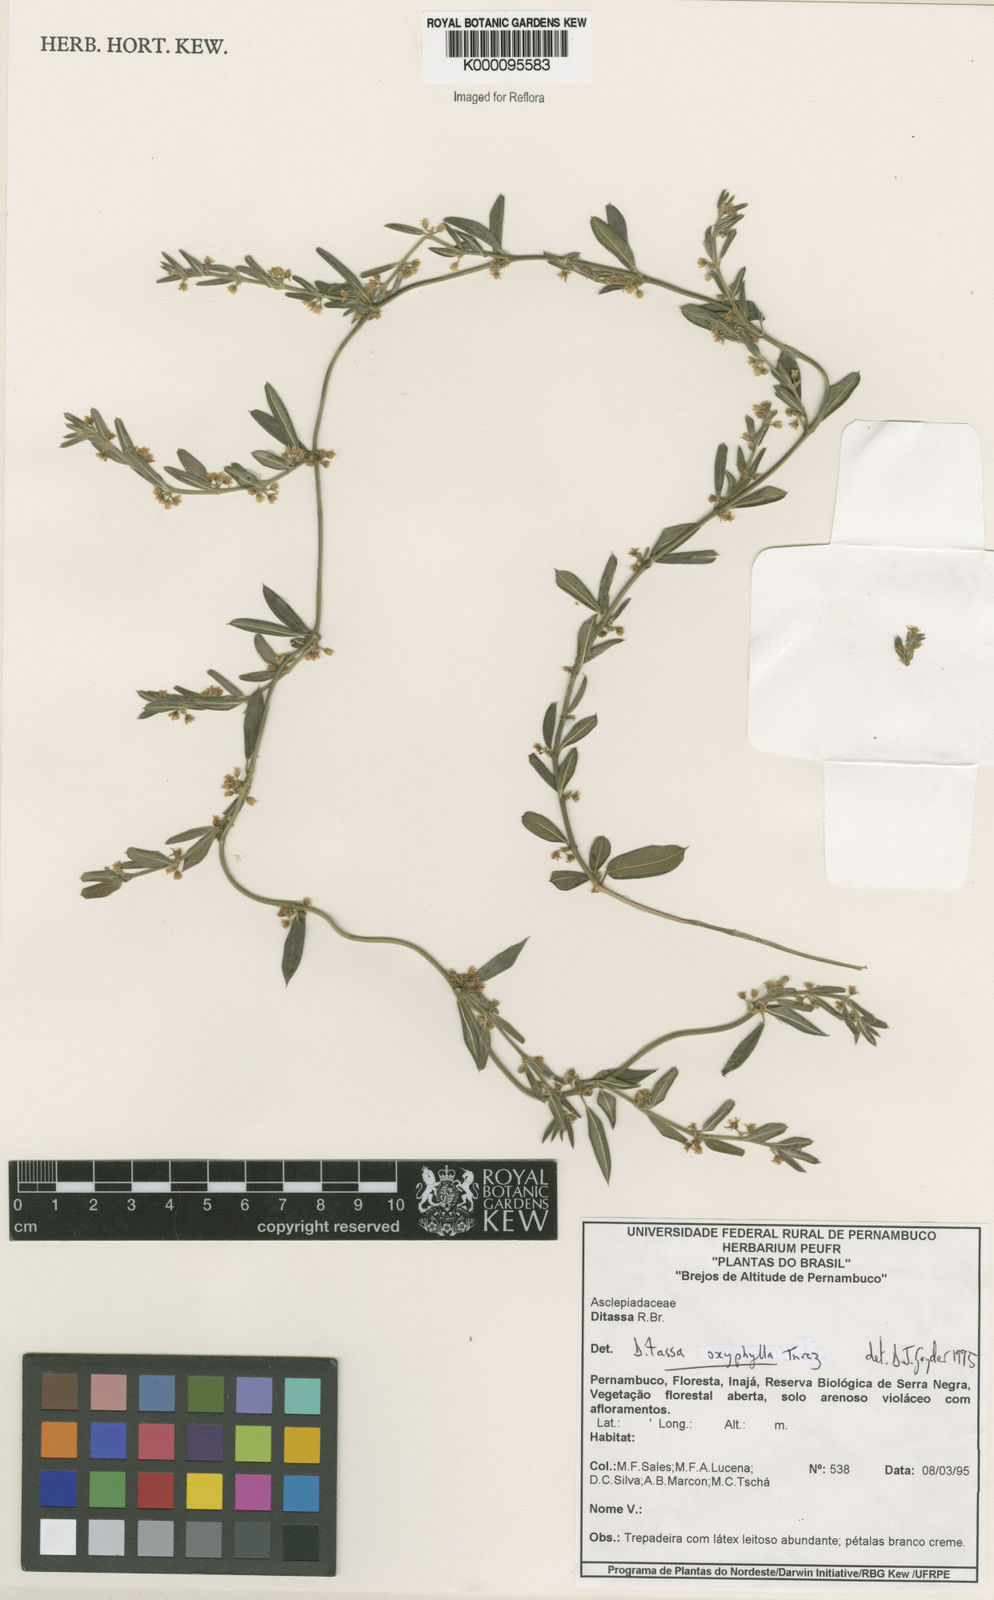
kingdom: Plantae
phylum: Tracheophyta
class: Magnoliopsida
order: Gentianales
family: Apocynaceae
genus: Ditassa
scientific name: Ditassa oxyphylla
